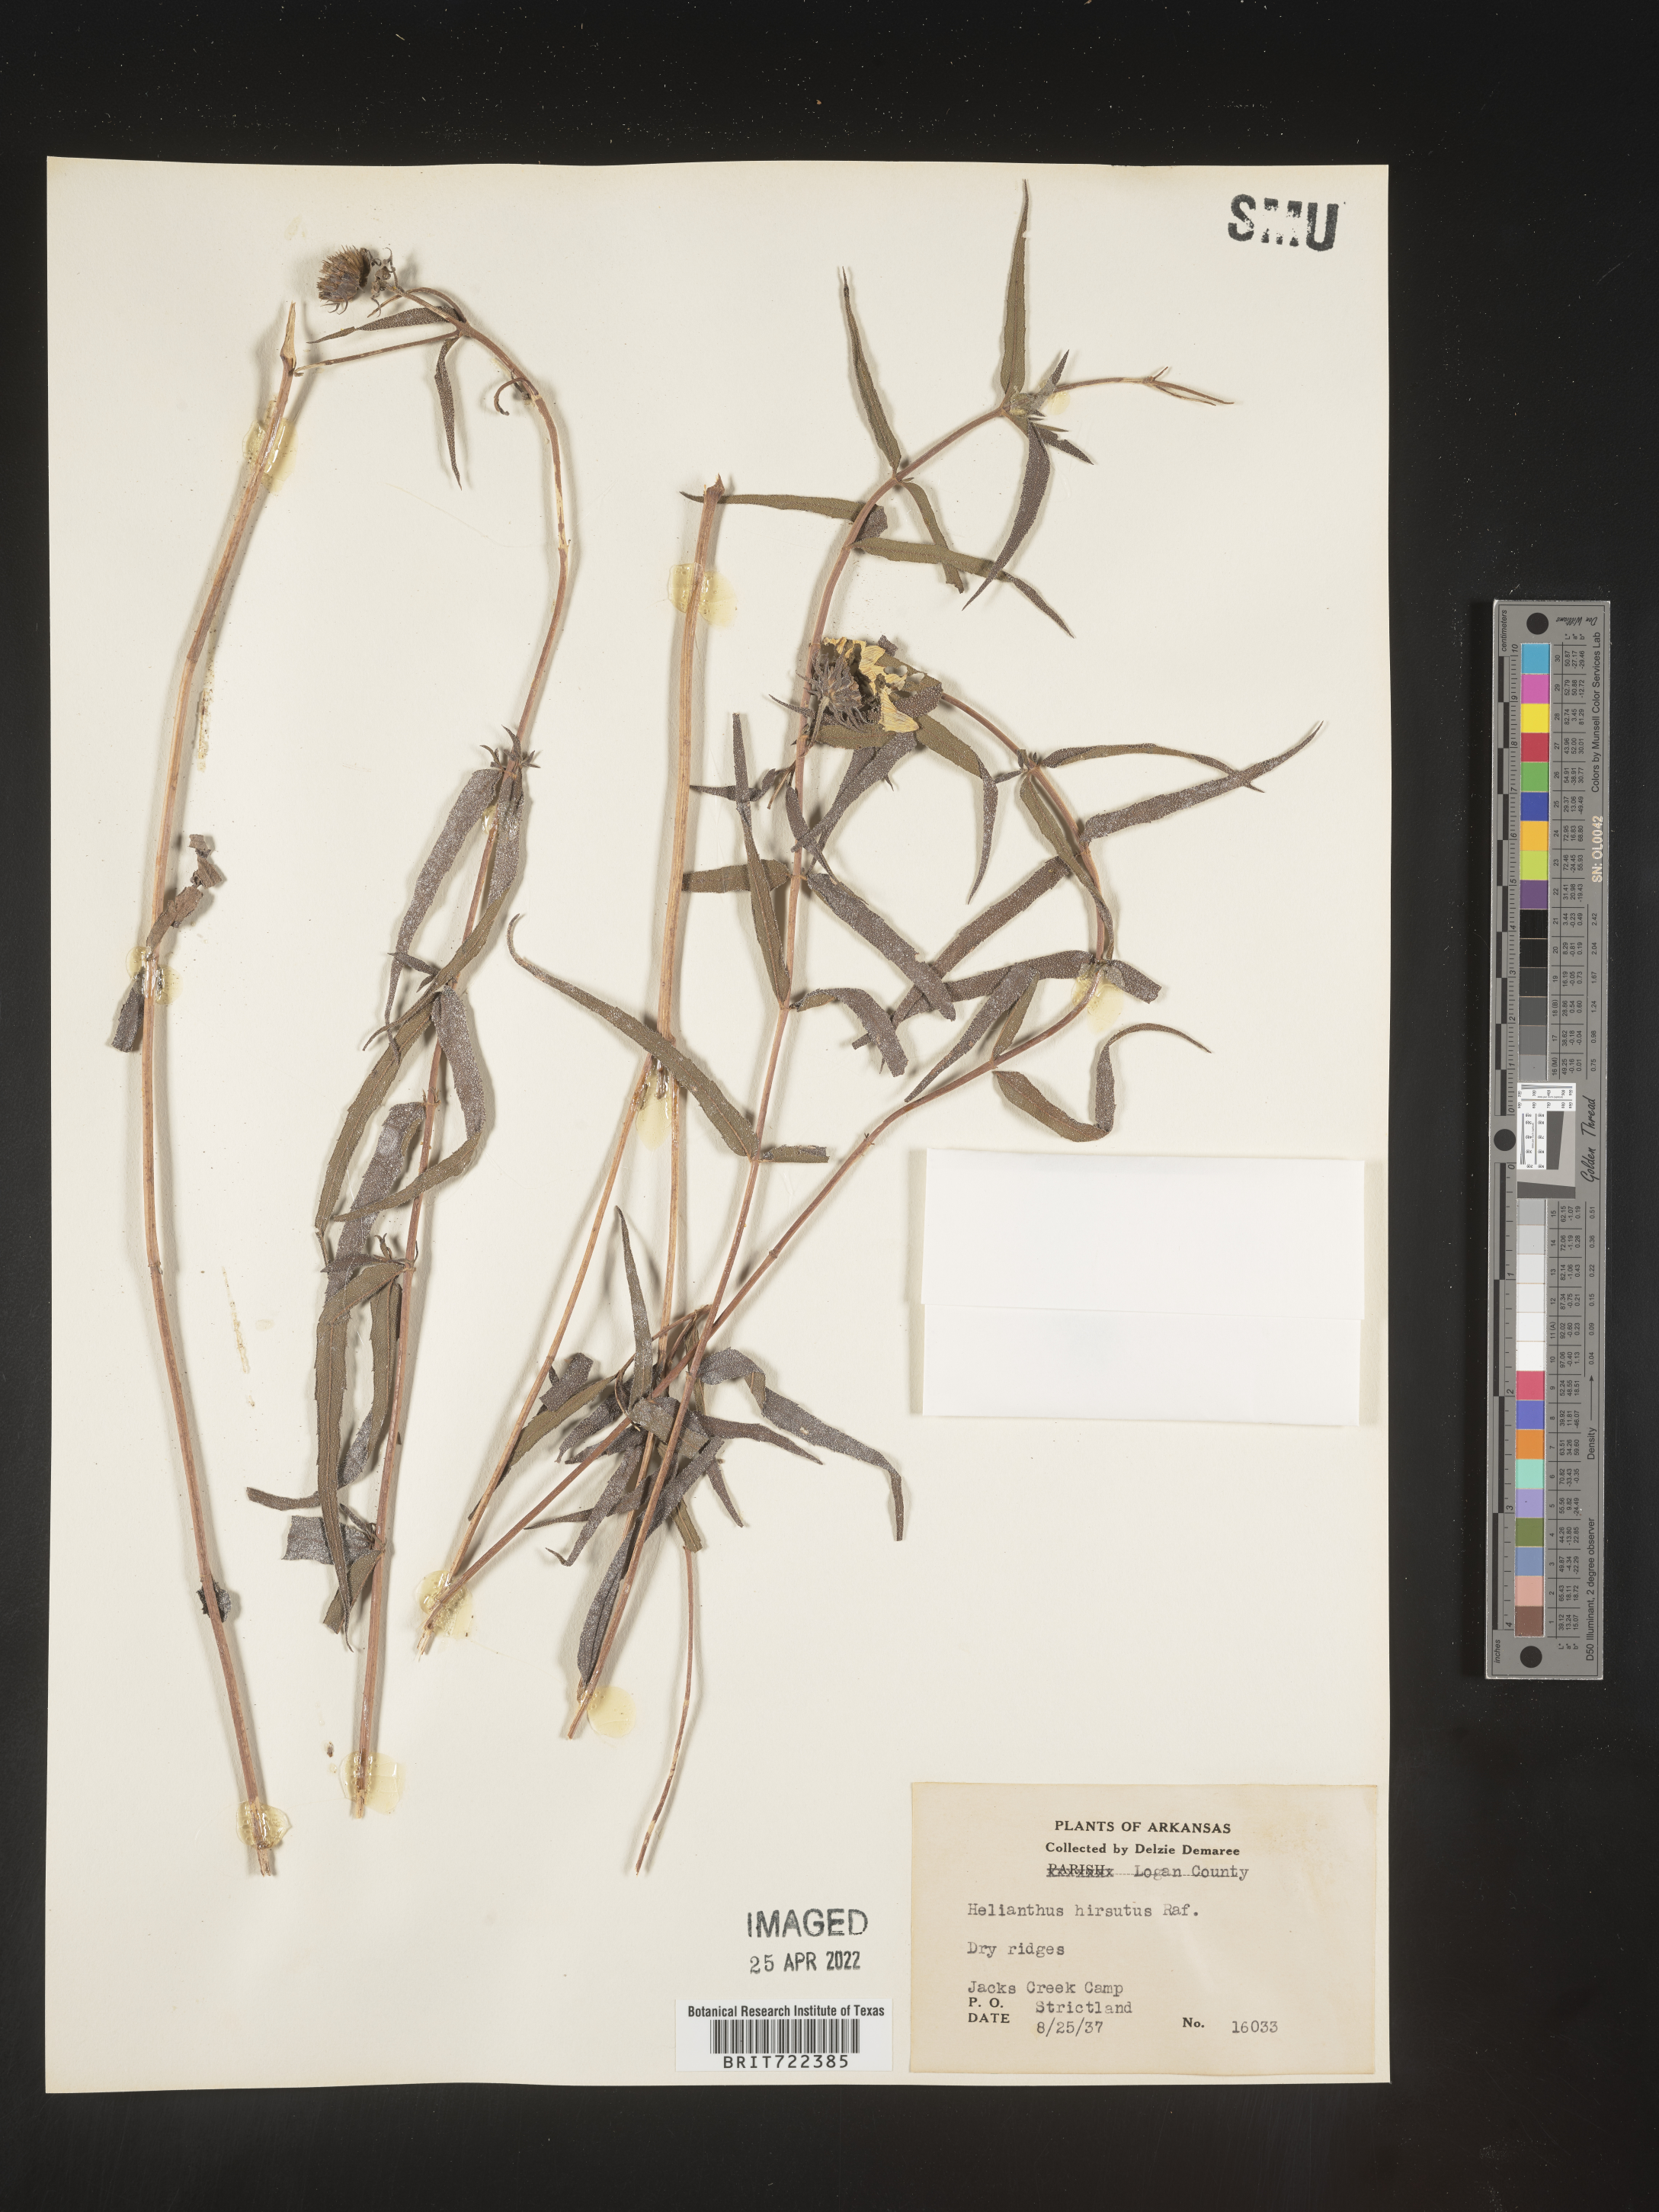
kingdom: Plantae
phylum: Tracheophyta
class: Magnoliopsida
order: Asterales
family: Asteraceae
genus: Helianthus
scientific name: Helianthus hirsutus
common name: Hairy sunflower
